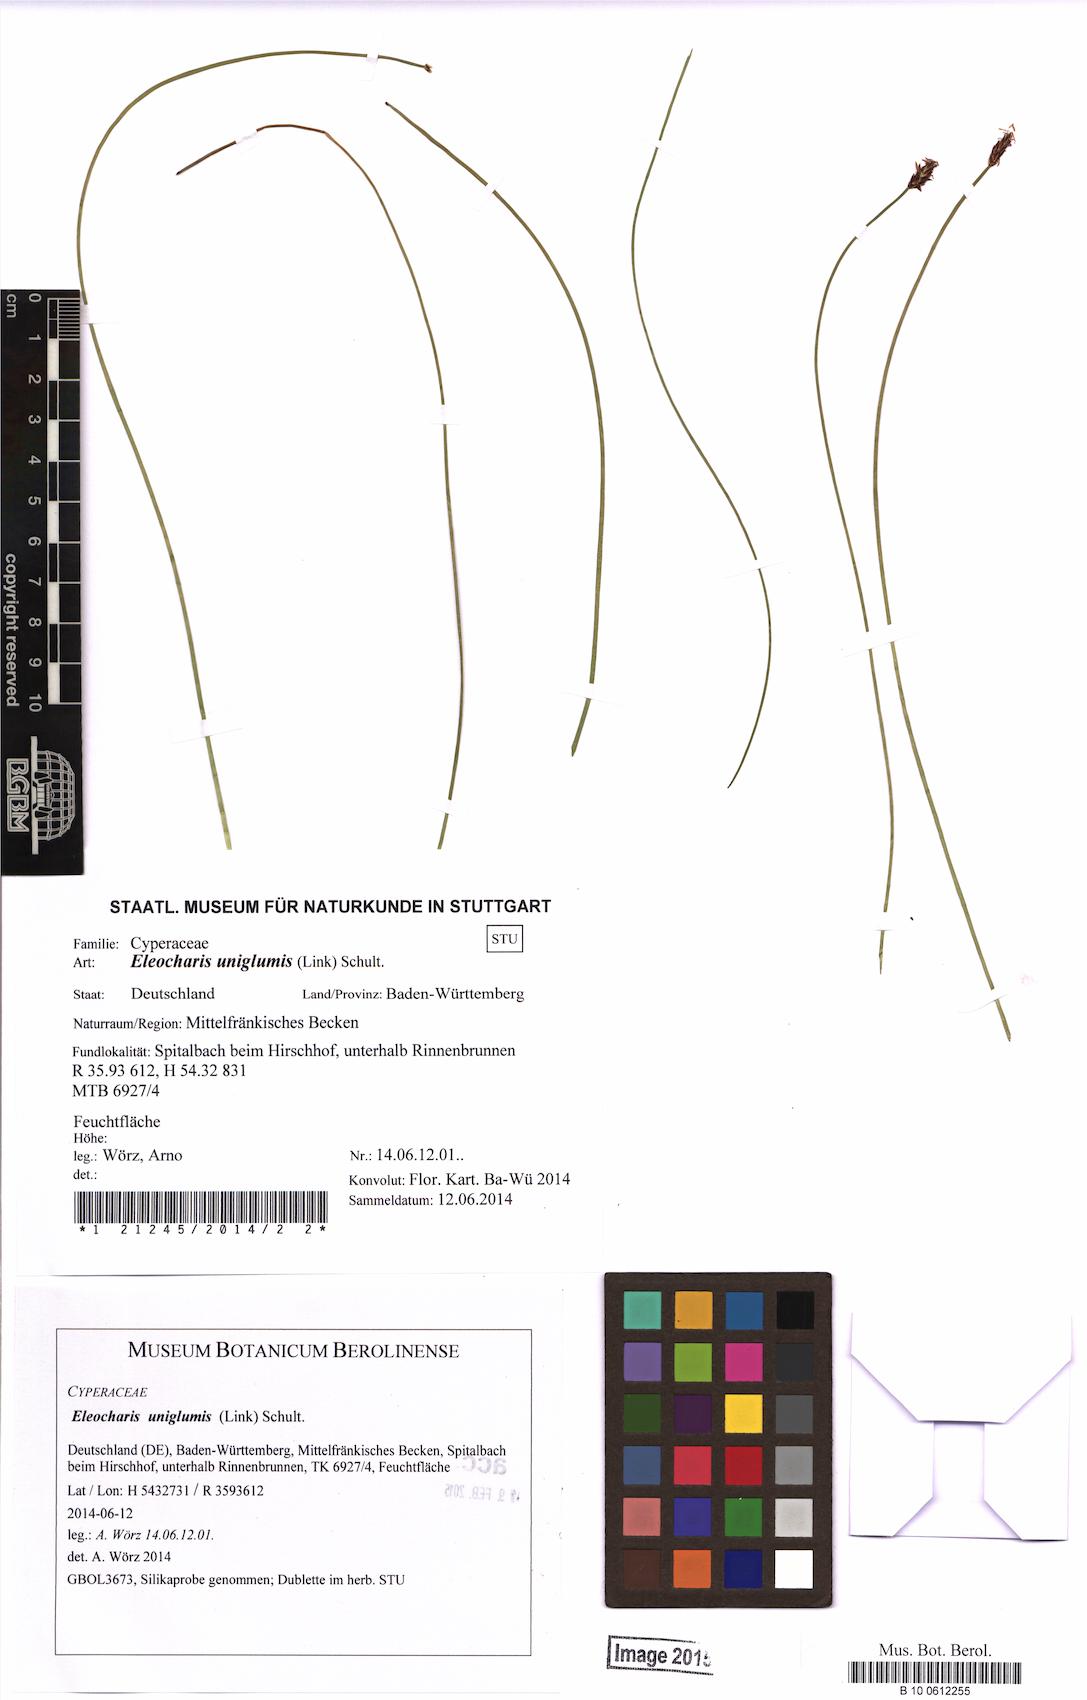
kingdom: Plantae
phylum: Tracheophyta
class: Liliopsida
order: Poales
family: Cyperaceae
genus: Eleocharis
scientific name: Eleocharis uniglumis
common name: Slender spike-rush
